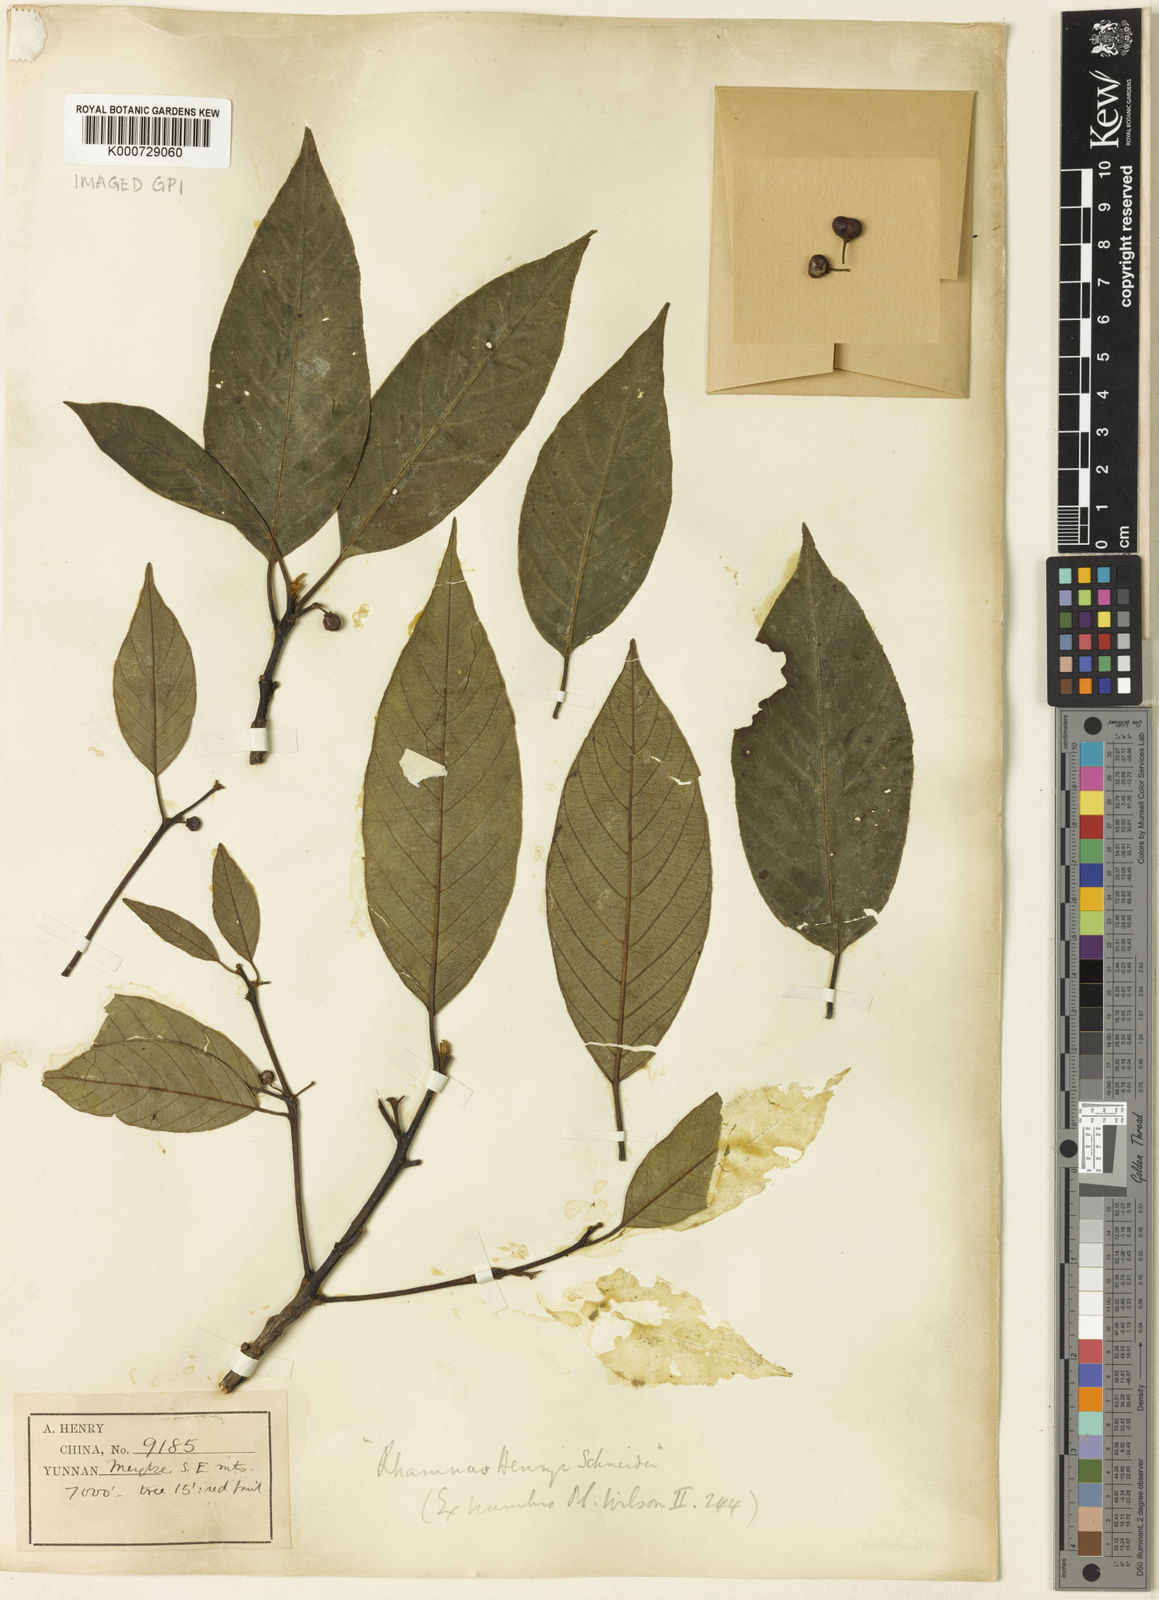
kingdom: Plantae
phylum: Tracheophyta
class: Magnoliopsida
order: Rosales
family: Rhamnaceae
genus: Frangula
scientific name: Frangula henryi
